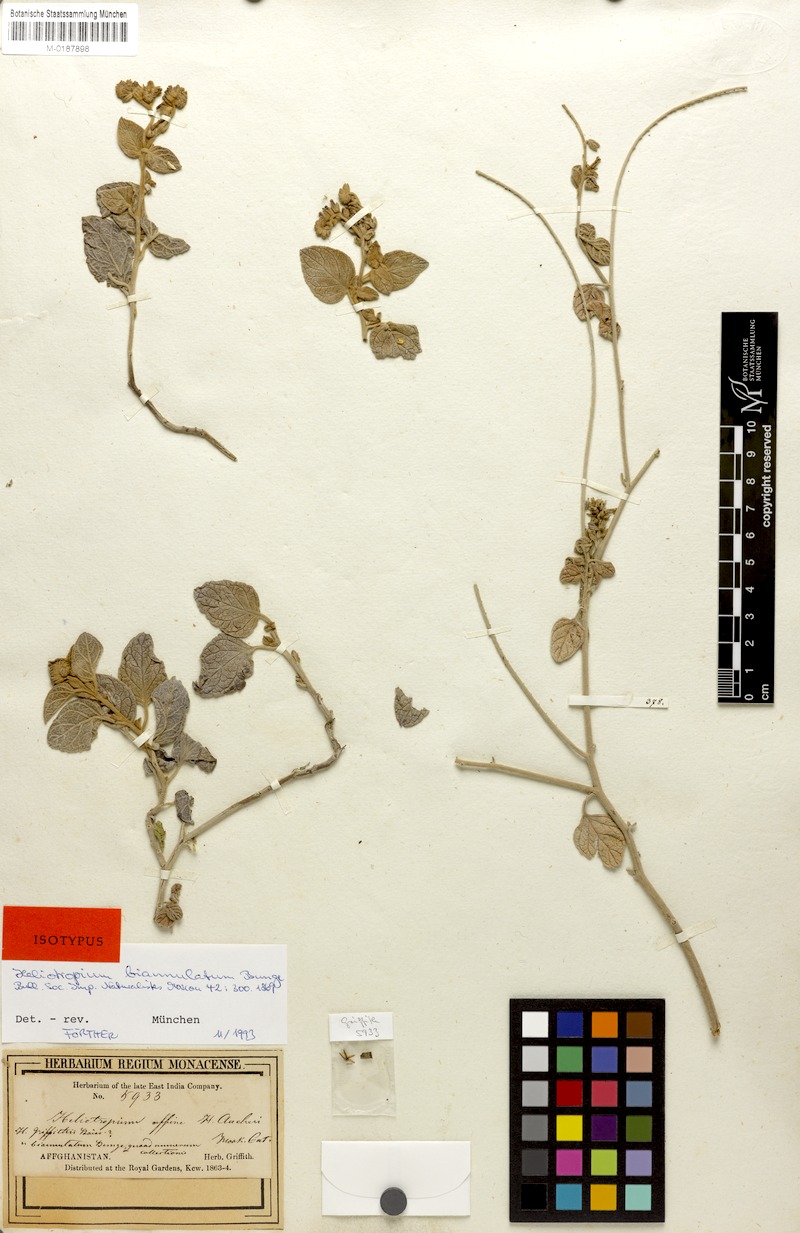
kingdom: Plantae
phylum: Tracheophyta
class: Magnoliopsida
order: Boraginales
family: Heliotropiaceae
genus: Heliotropium
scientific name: Heliotropium biannulatum
